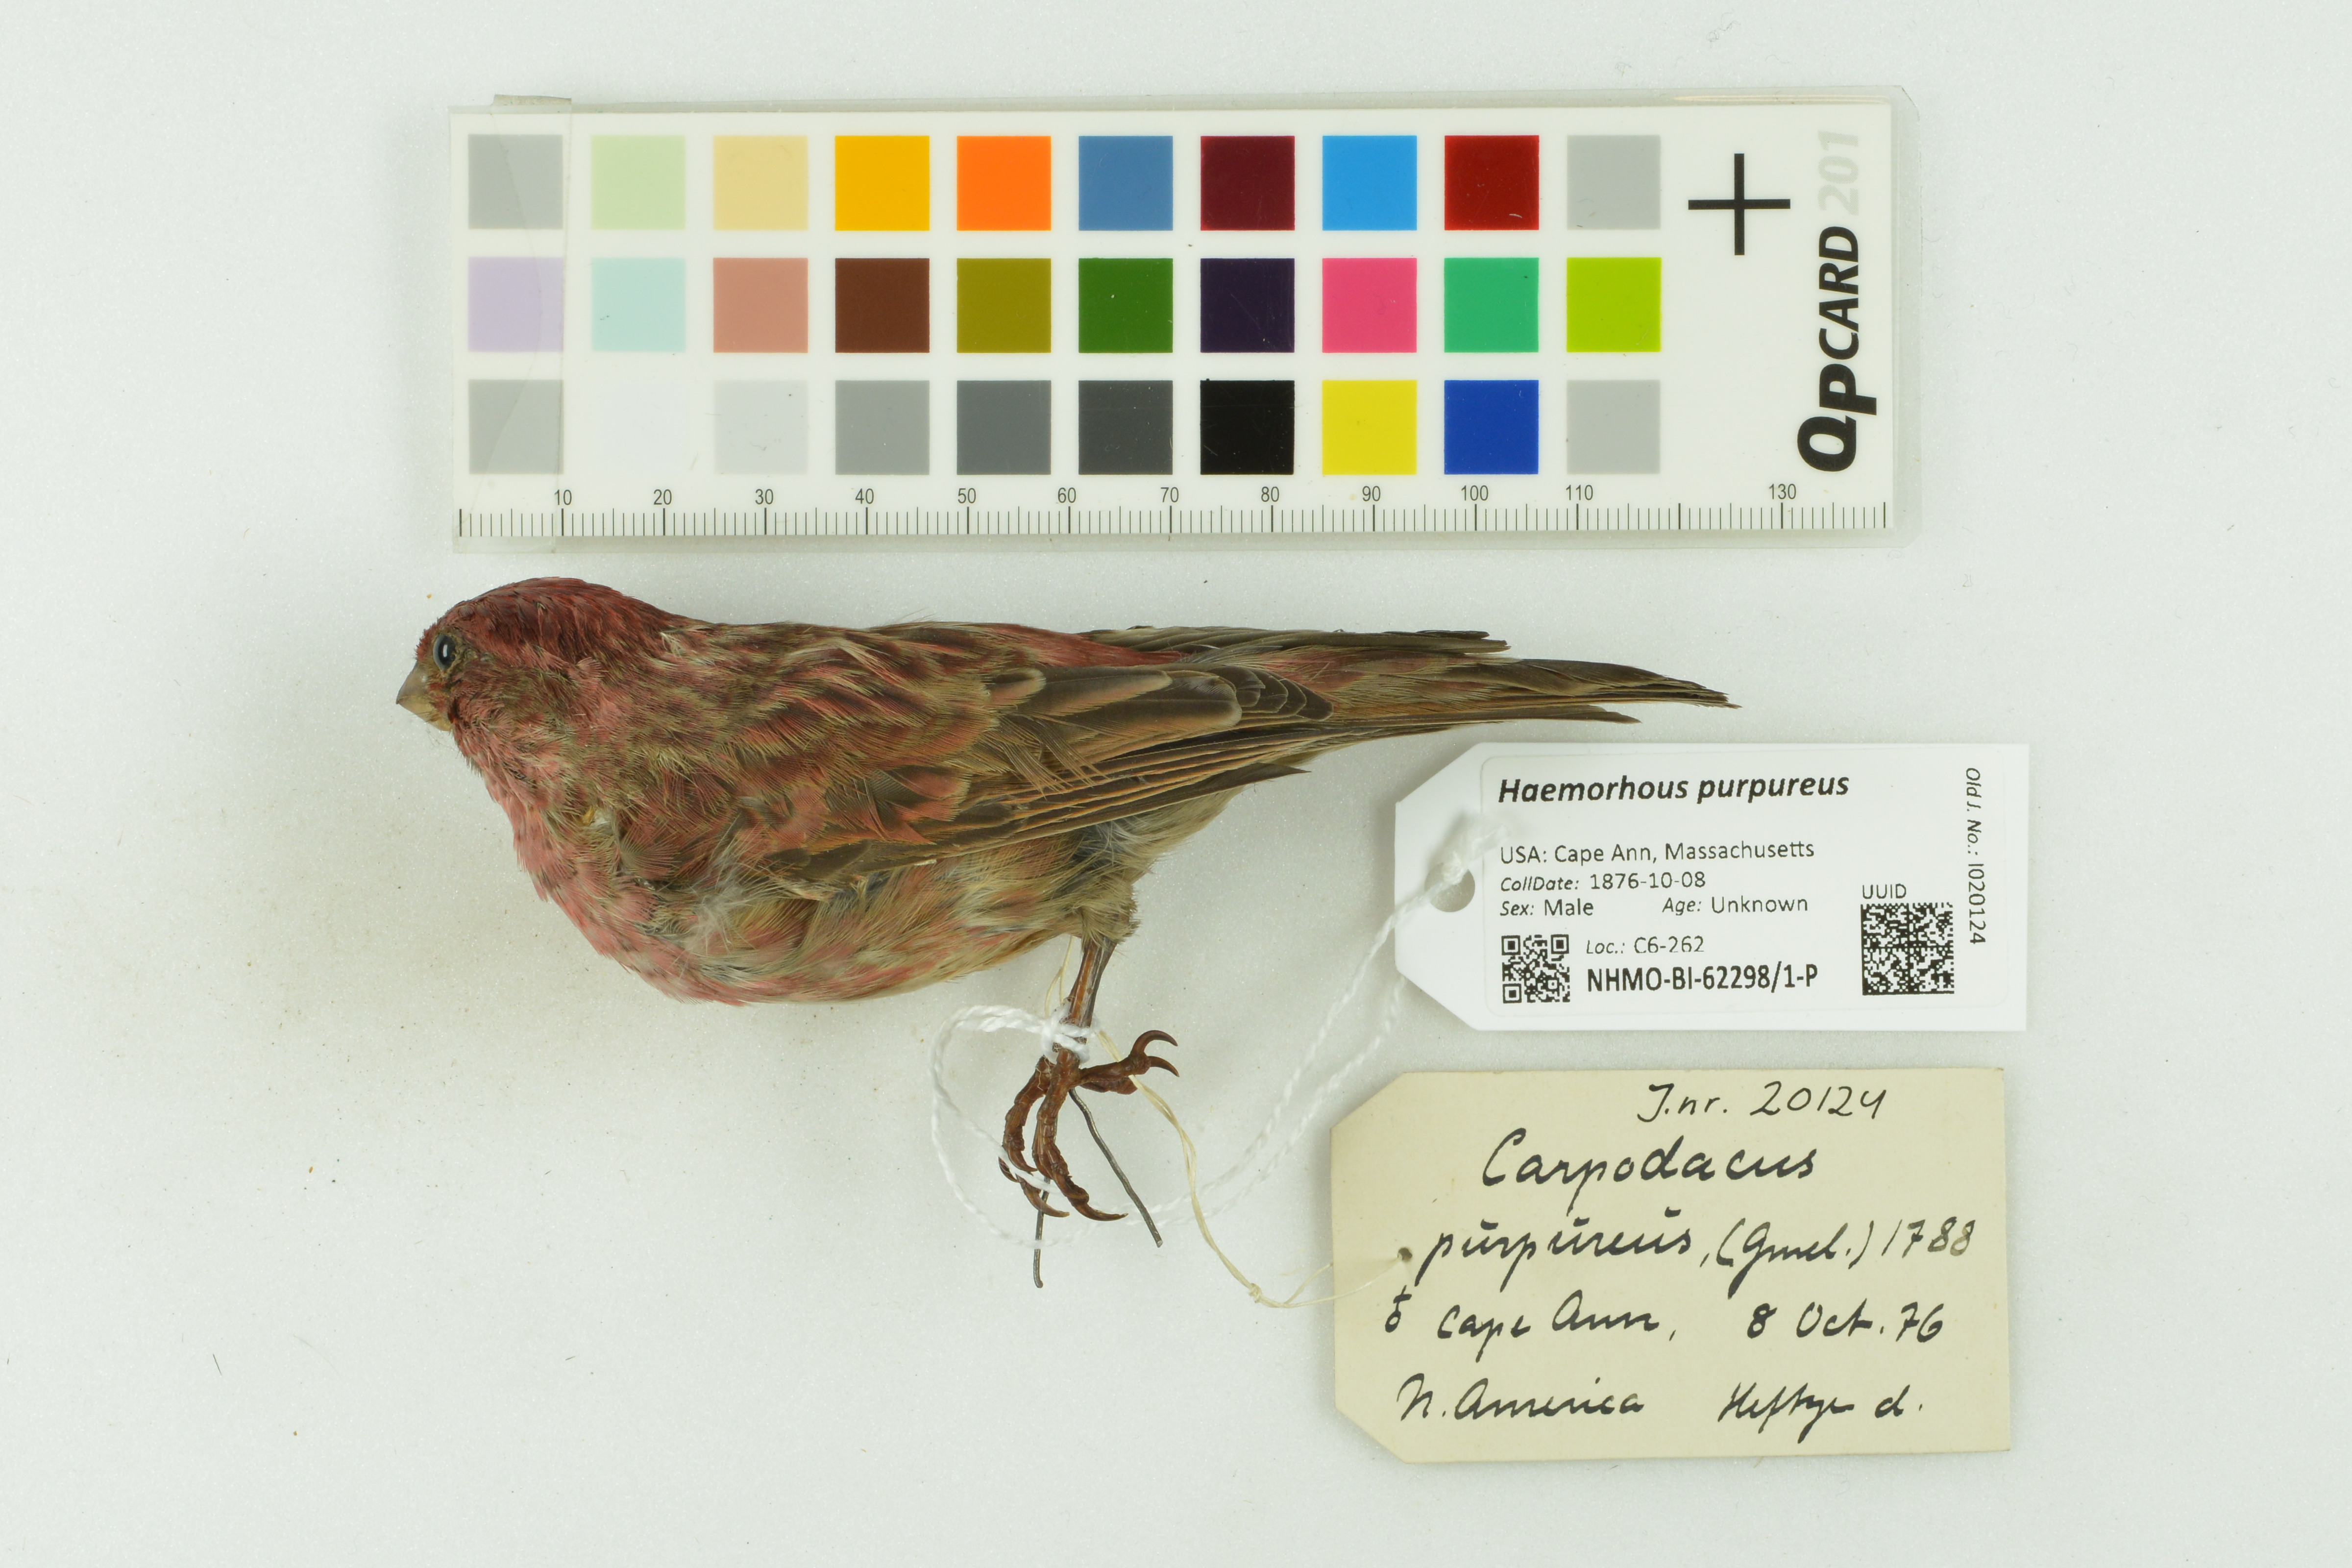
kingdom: Animalia
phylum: Chordata
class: Aves
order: Passeriformes
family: Fringillidae
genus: Haemorhous
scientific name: Haemorhous purpureus
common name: Purple finch
